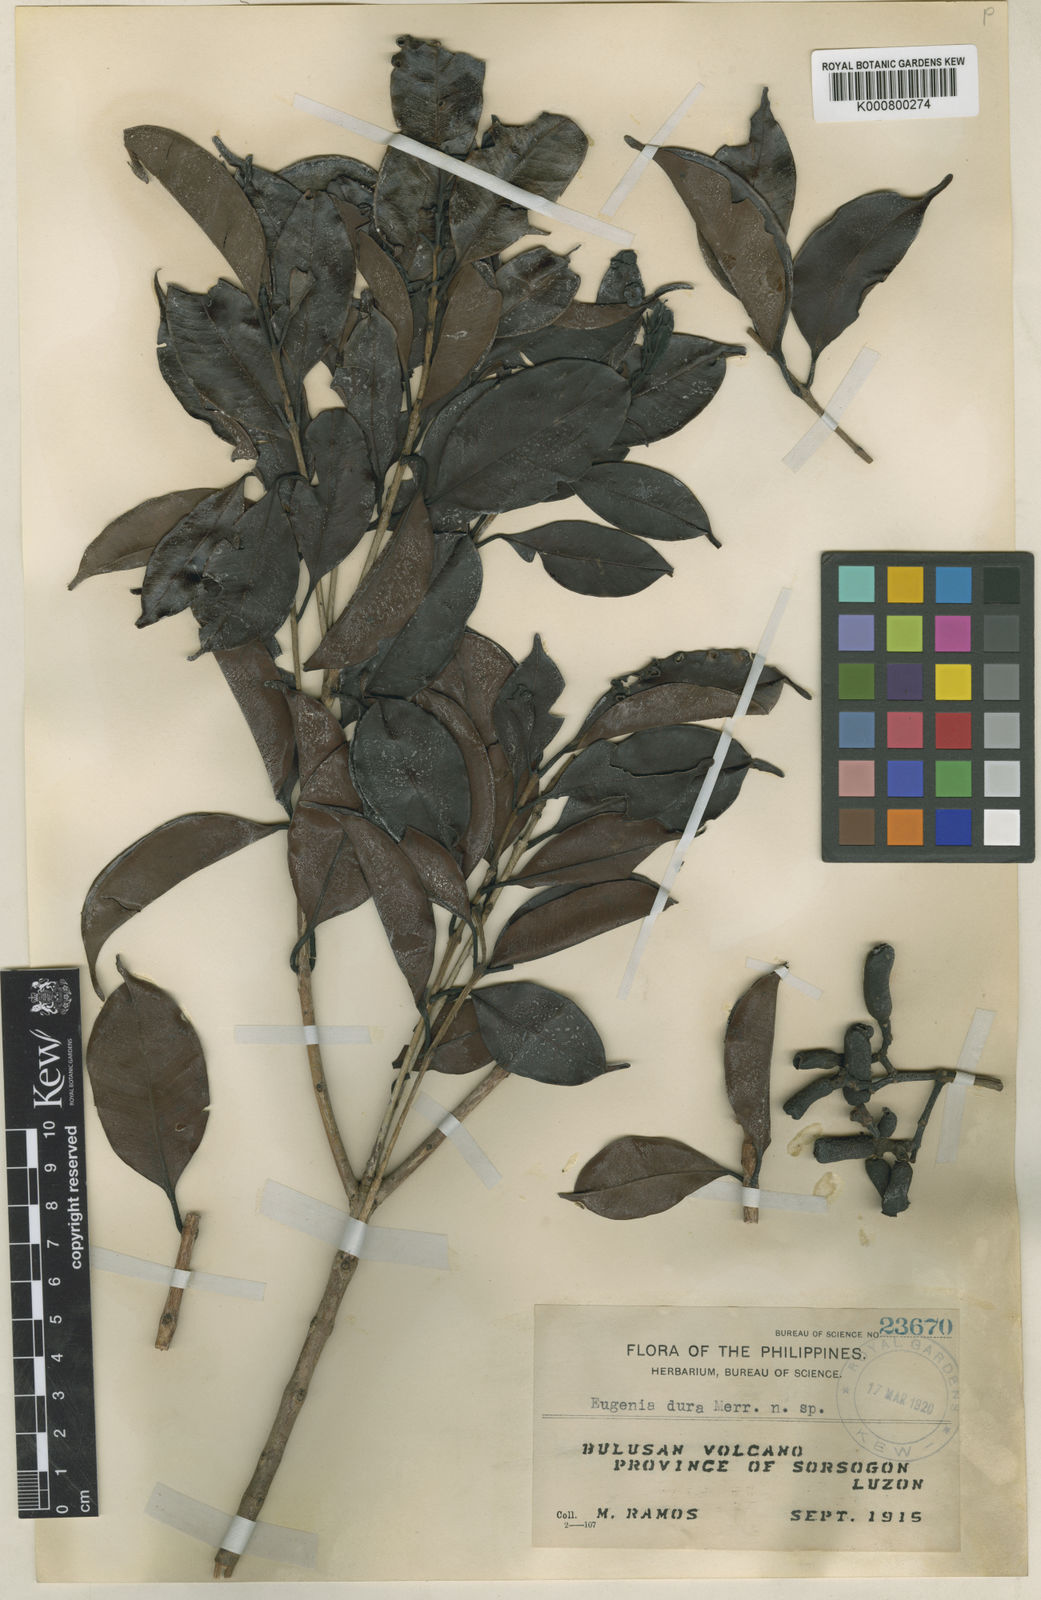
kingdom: Plantae
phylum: Tracheophyta
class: Magnoliopsida
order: Myrtales
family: Myrtaceae
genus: Syzygium
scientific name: Syzygium durum
